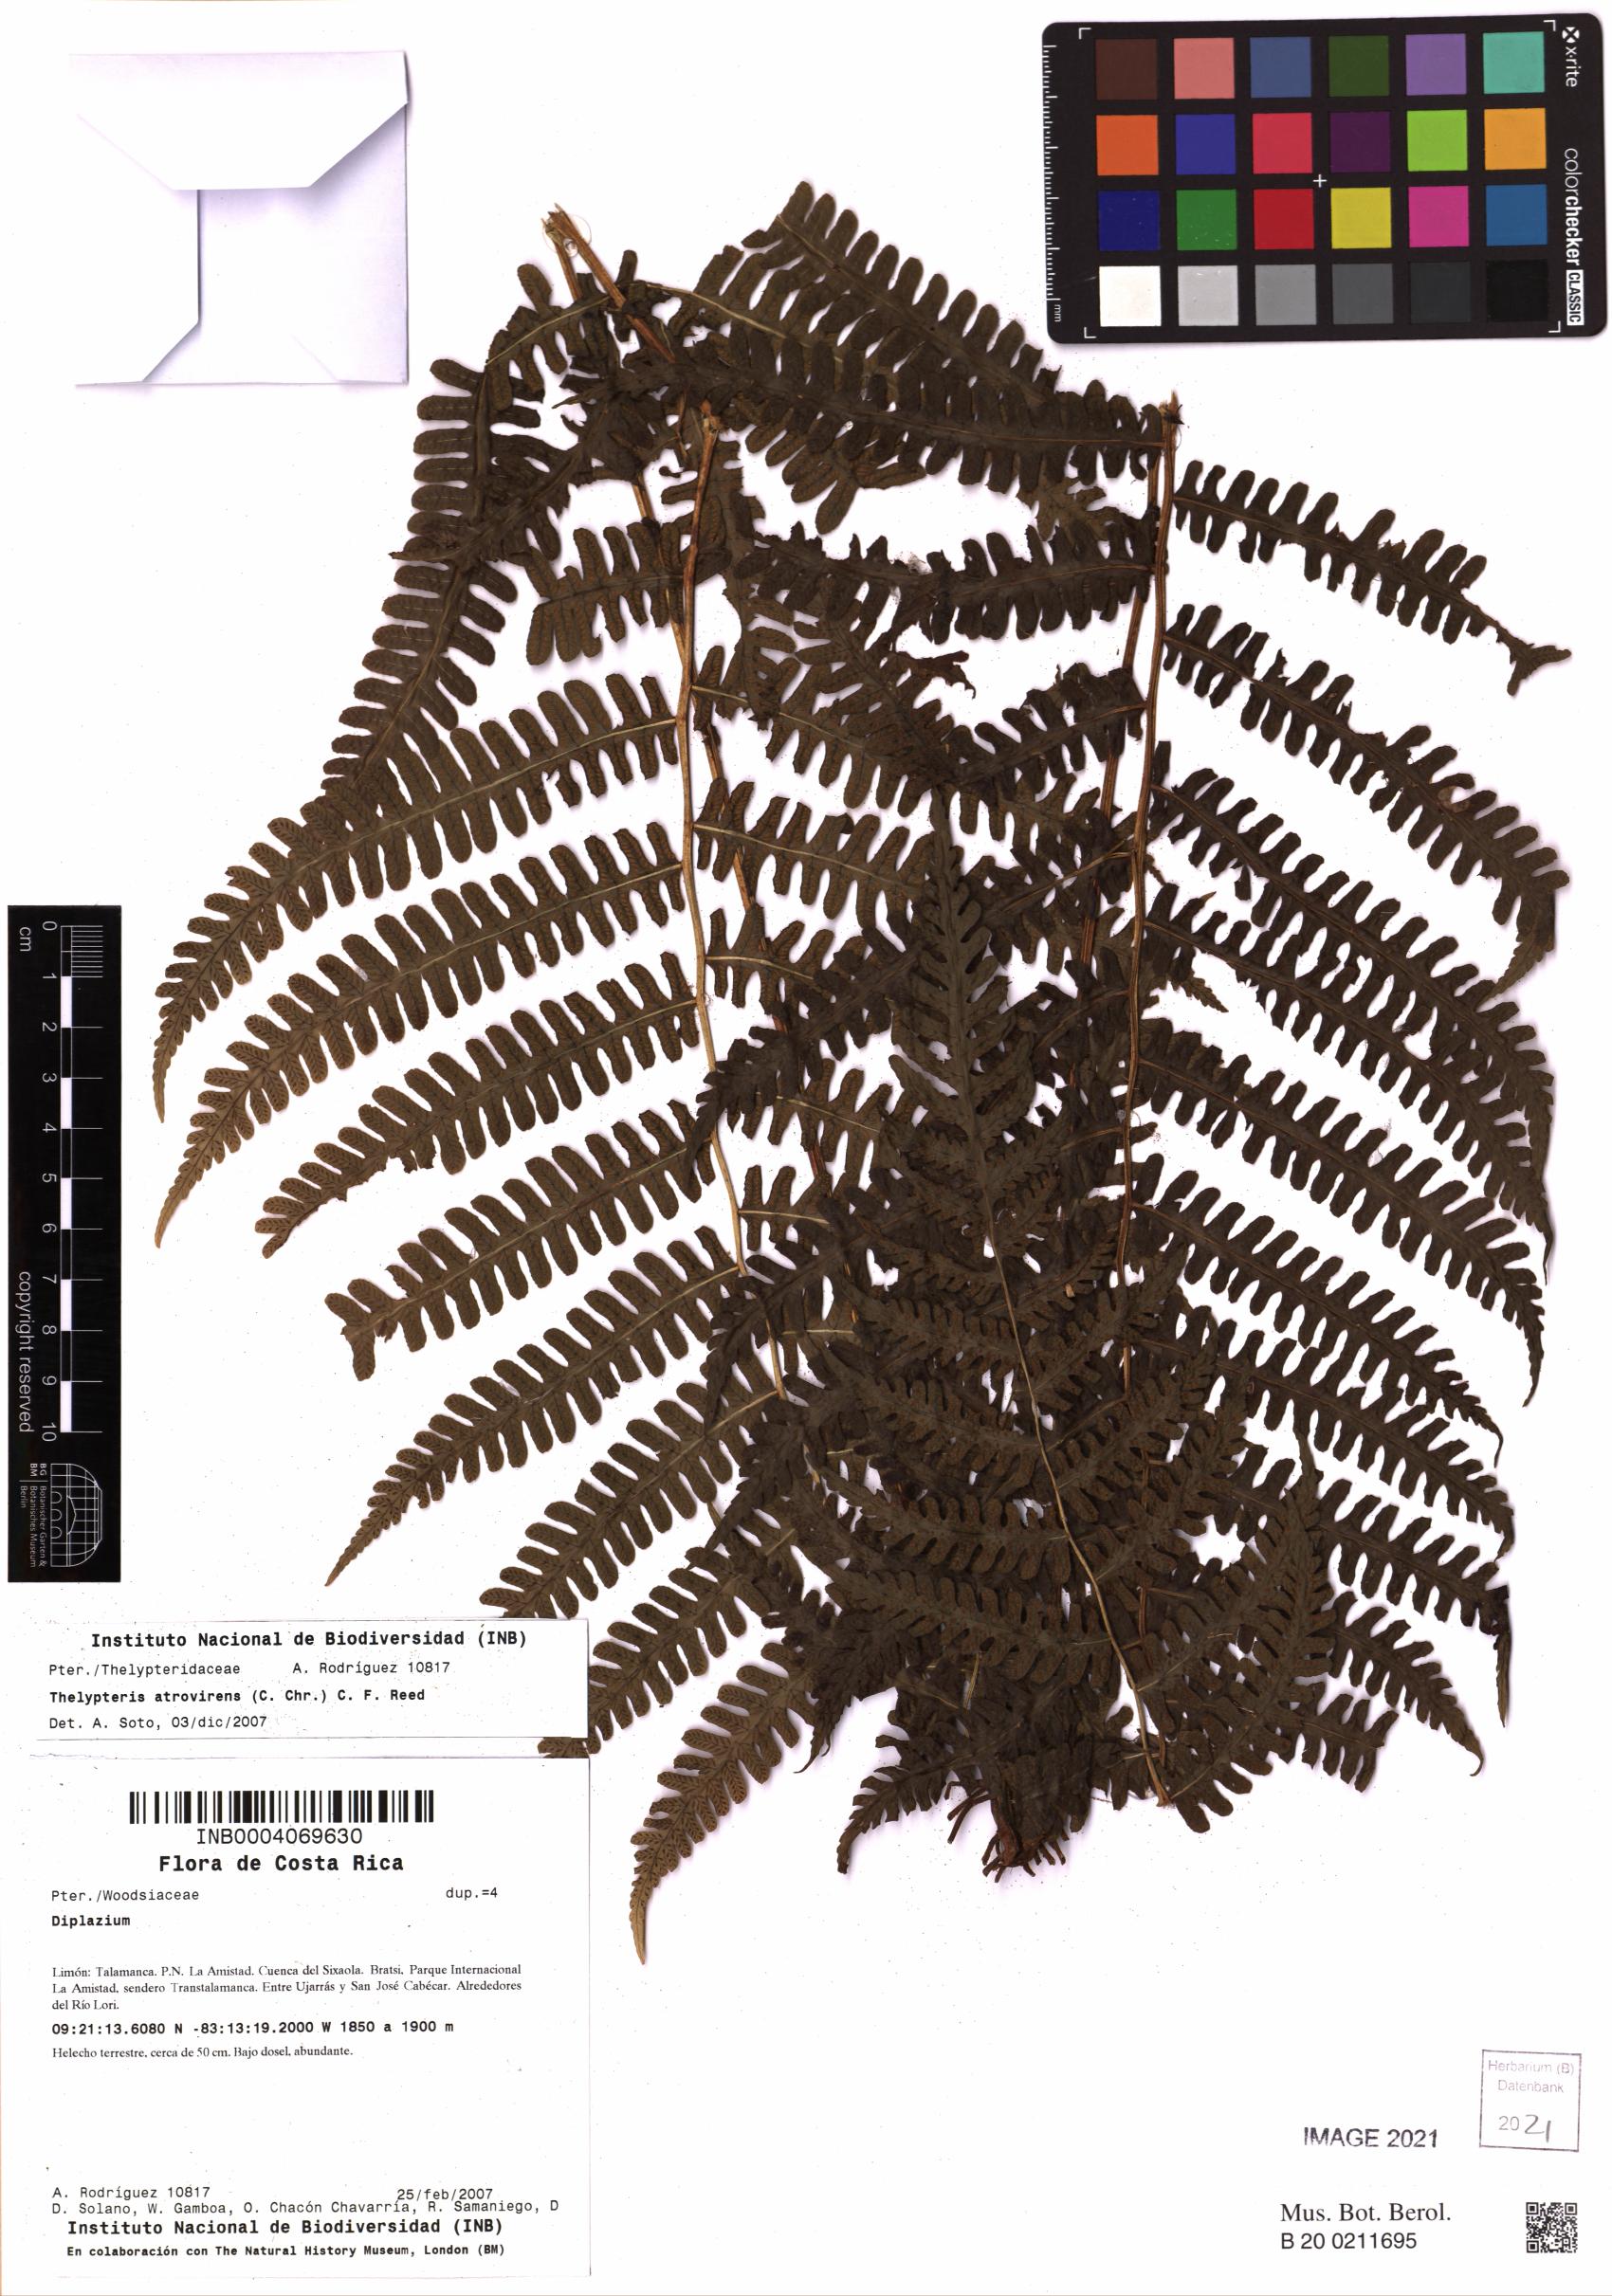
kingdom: Plantae
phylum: Tracheophyta
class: Polypodiopsida
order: Polypodiales
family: Thelypteridaceae
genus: Amauropelta
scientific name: Amauropelta atrovirens
